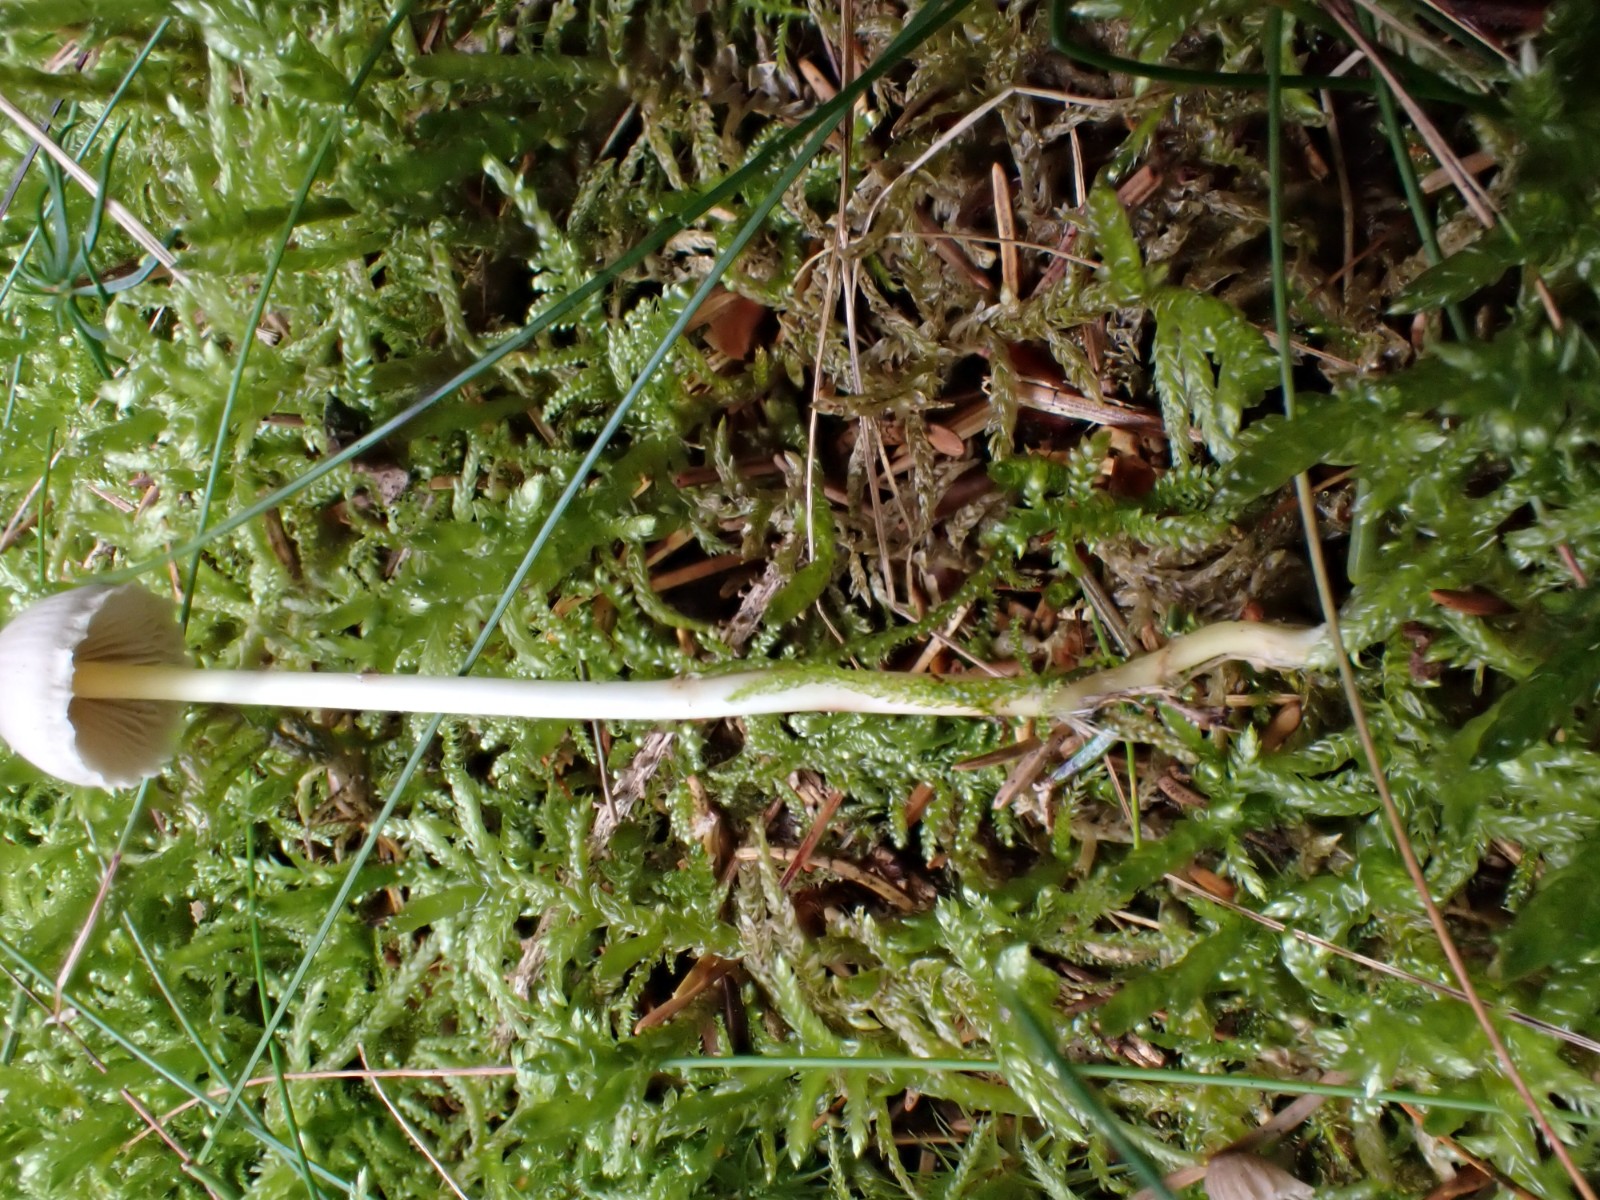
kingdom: Fungi
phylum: Basidiomycota
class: Agaricomycetes
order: Agaricales
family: Mycenaceae
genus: Mycena
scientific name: Mycena epipterygia
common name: gulstokket huesvamp
